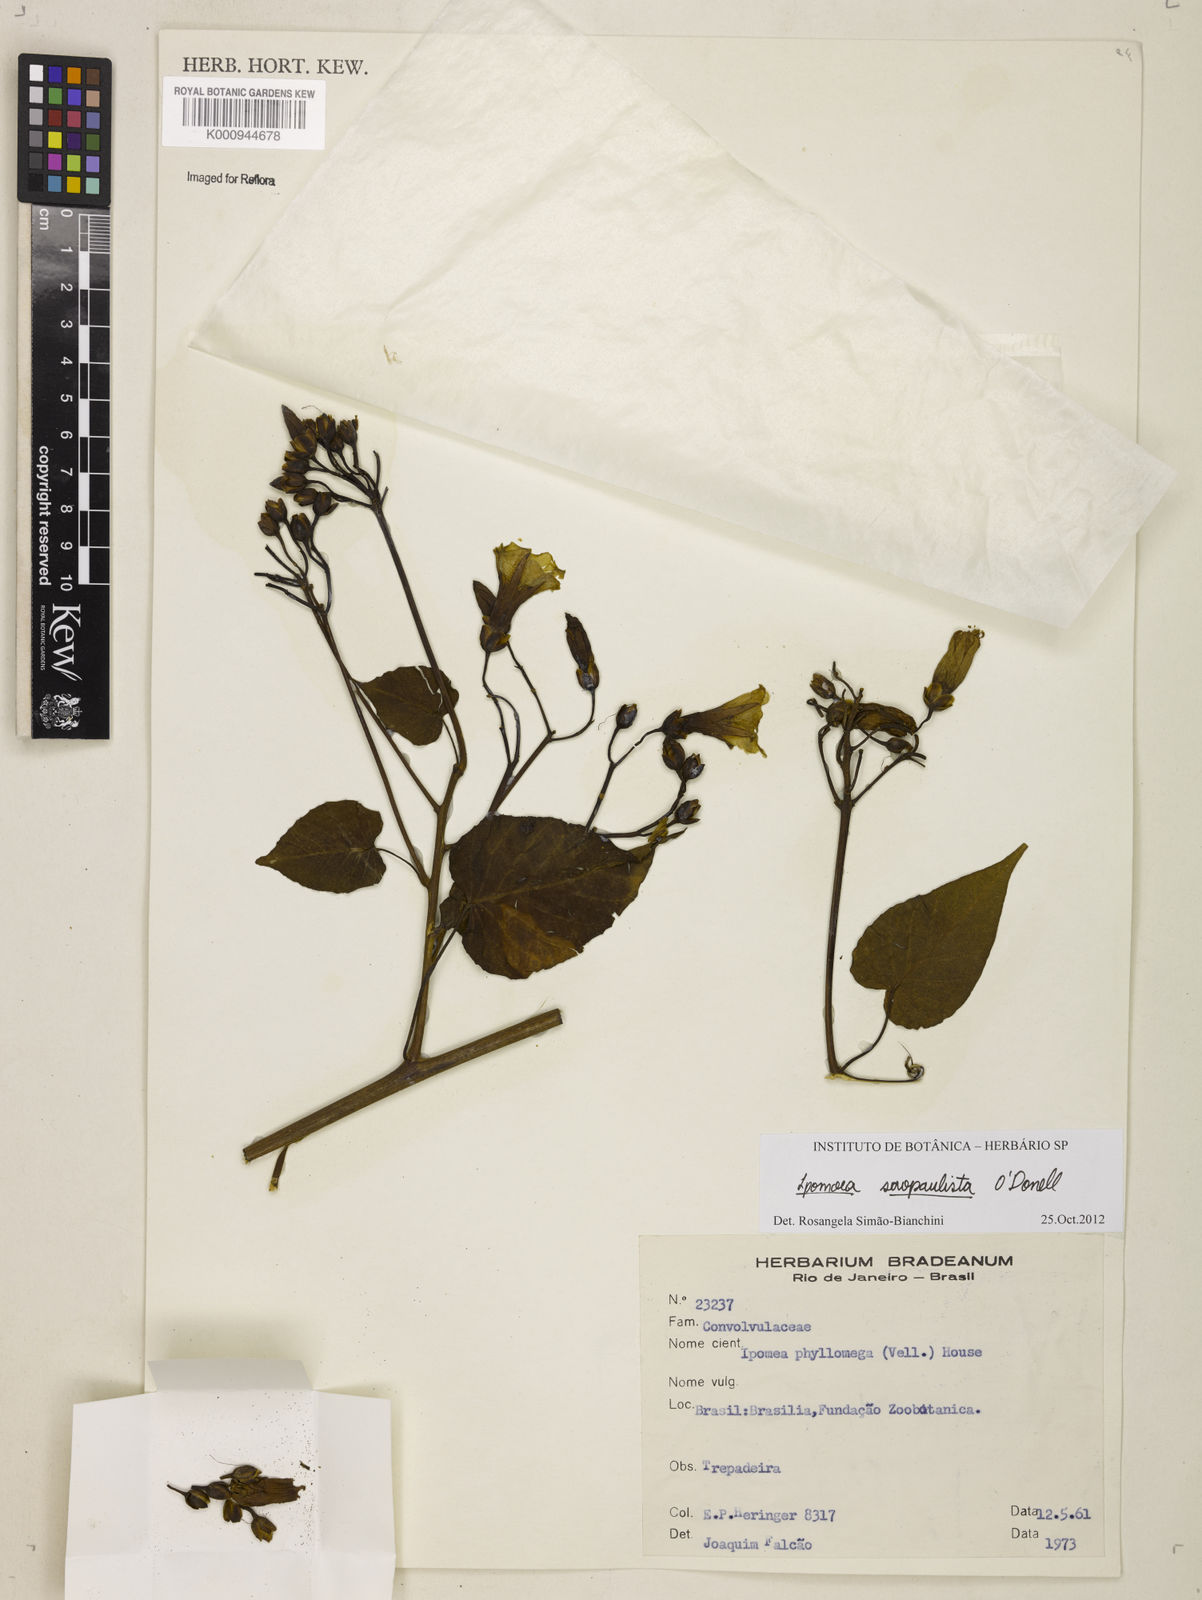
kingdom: Plantae
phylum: Tracheophyta
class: Magnoliopsida
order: Solanales
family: Convolvulaceae
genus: Ipomoea
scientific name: Ipomoea
